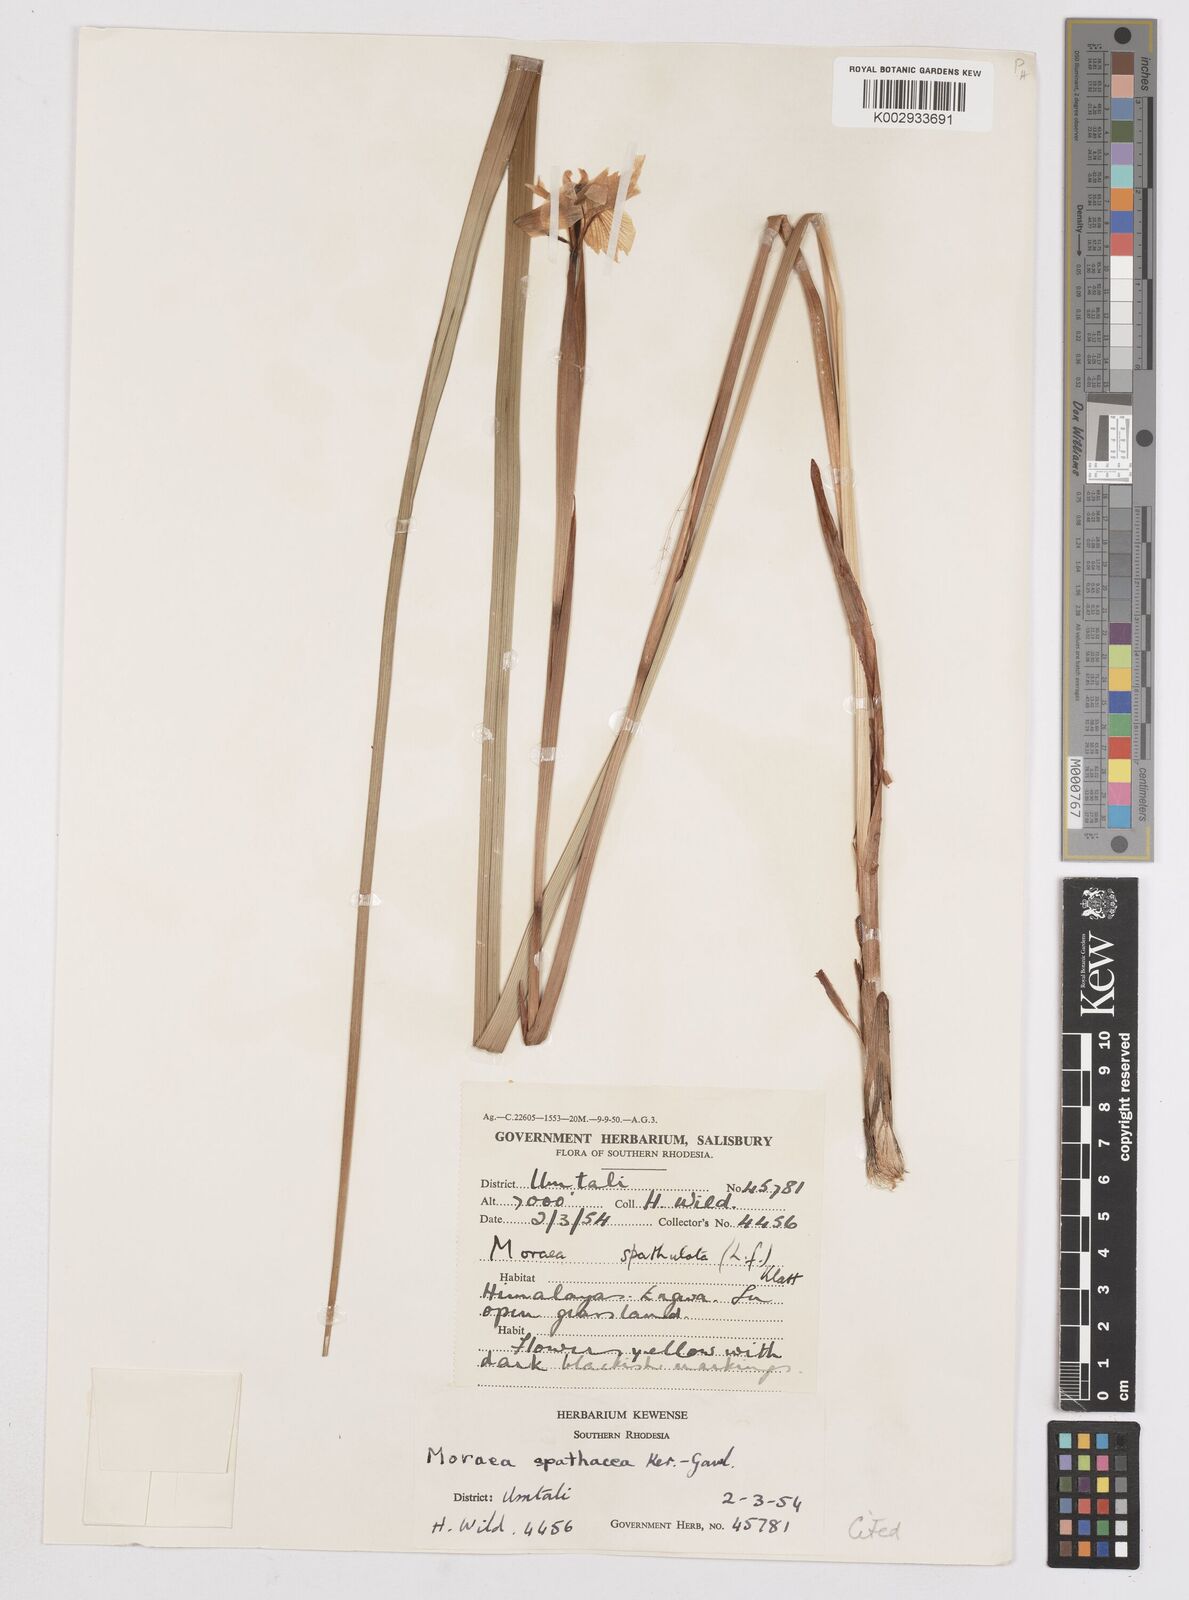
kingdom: Plantae
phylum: Tracheophyta
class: Liliopsida
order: Asparagales
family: Iridaceae
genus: Moraea
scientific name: Moraea spathulata
